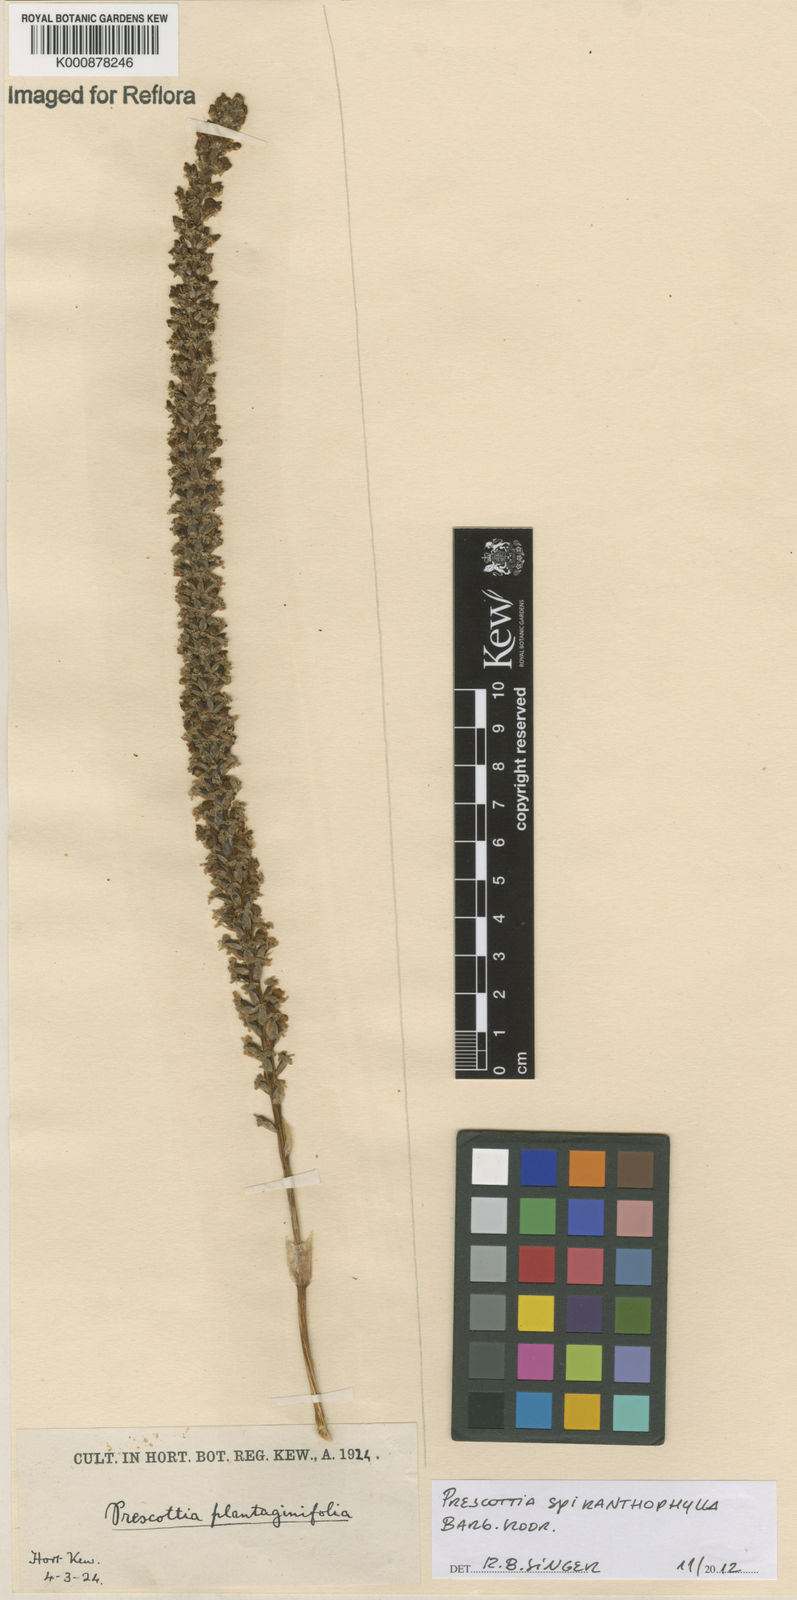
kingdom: Plantae
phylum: Tracheophyta
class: Liliopsida
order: Asparagales
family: Orchidaceae
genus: Prescottia
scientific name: Prescottia spiranthophylla
